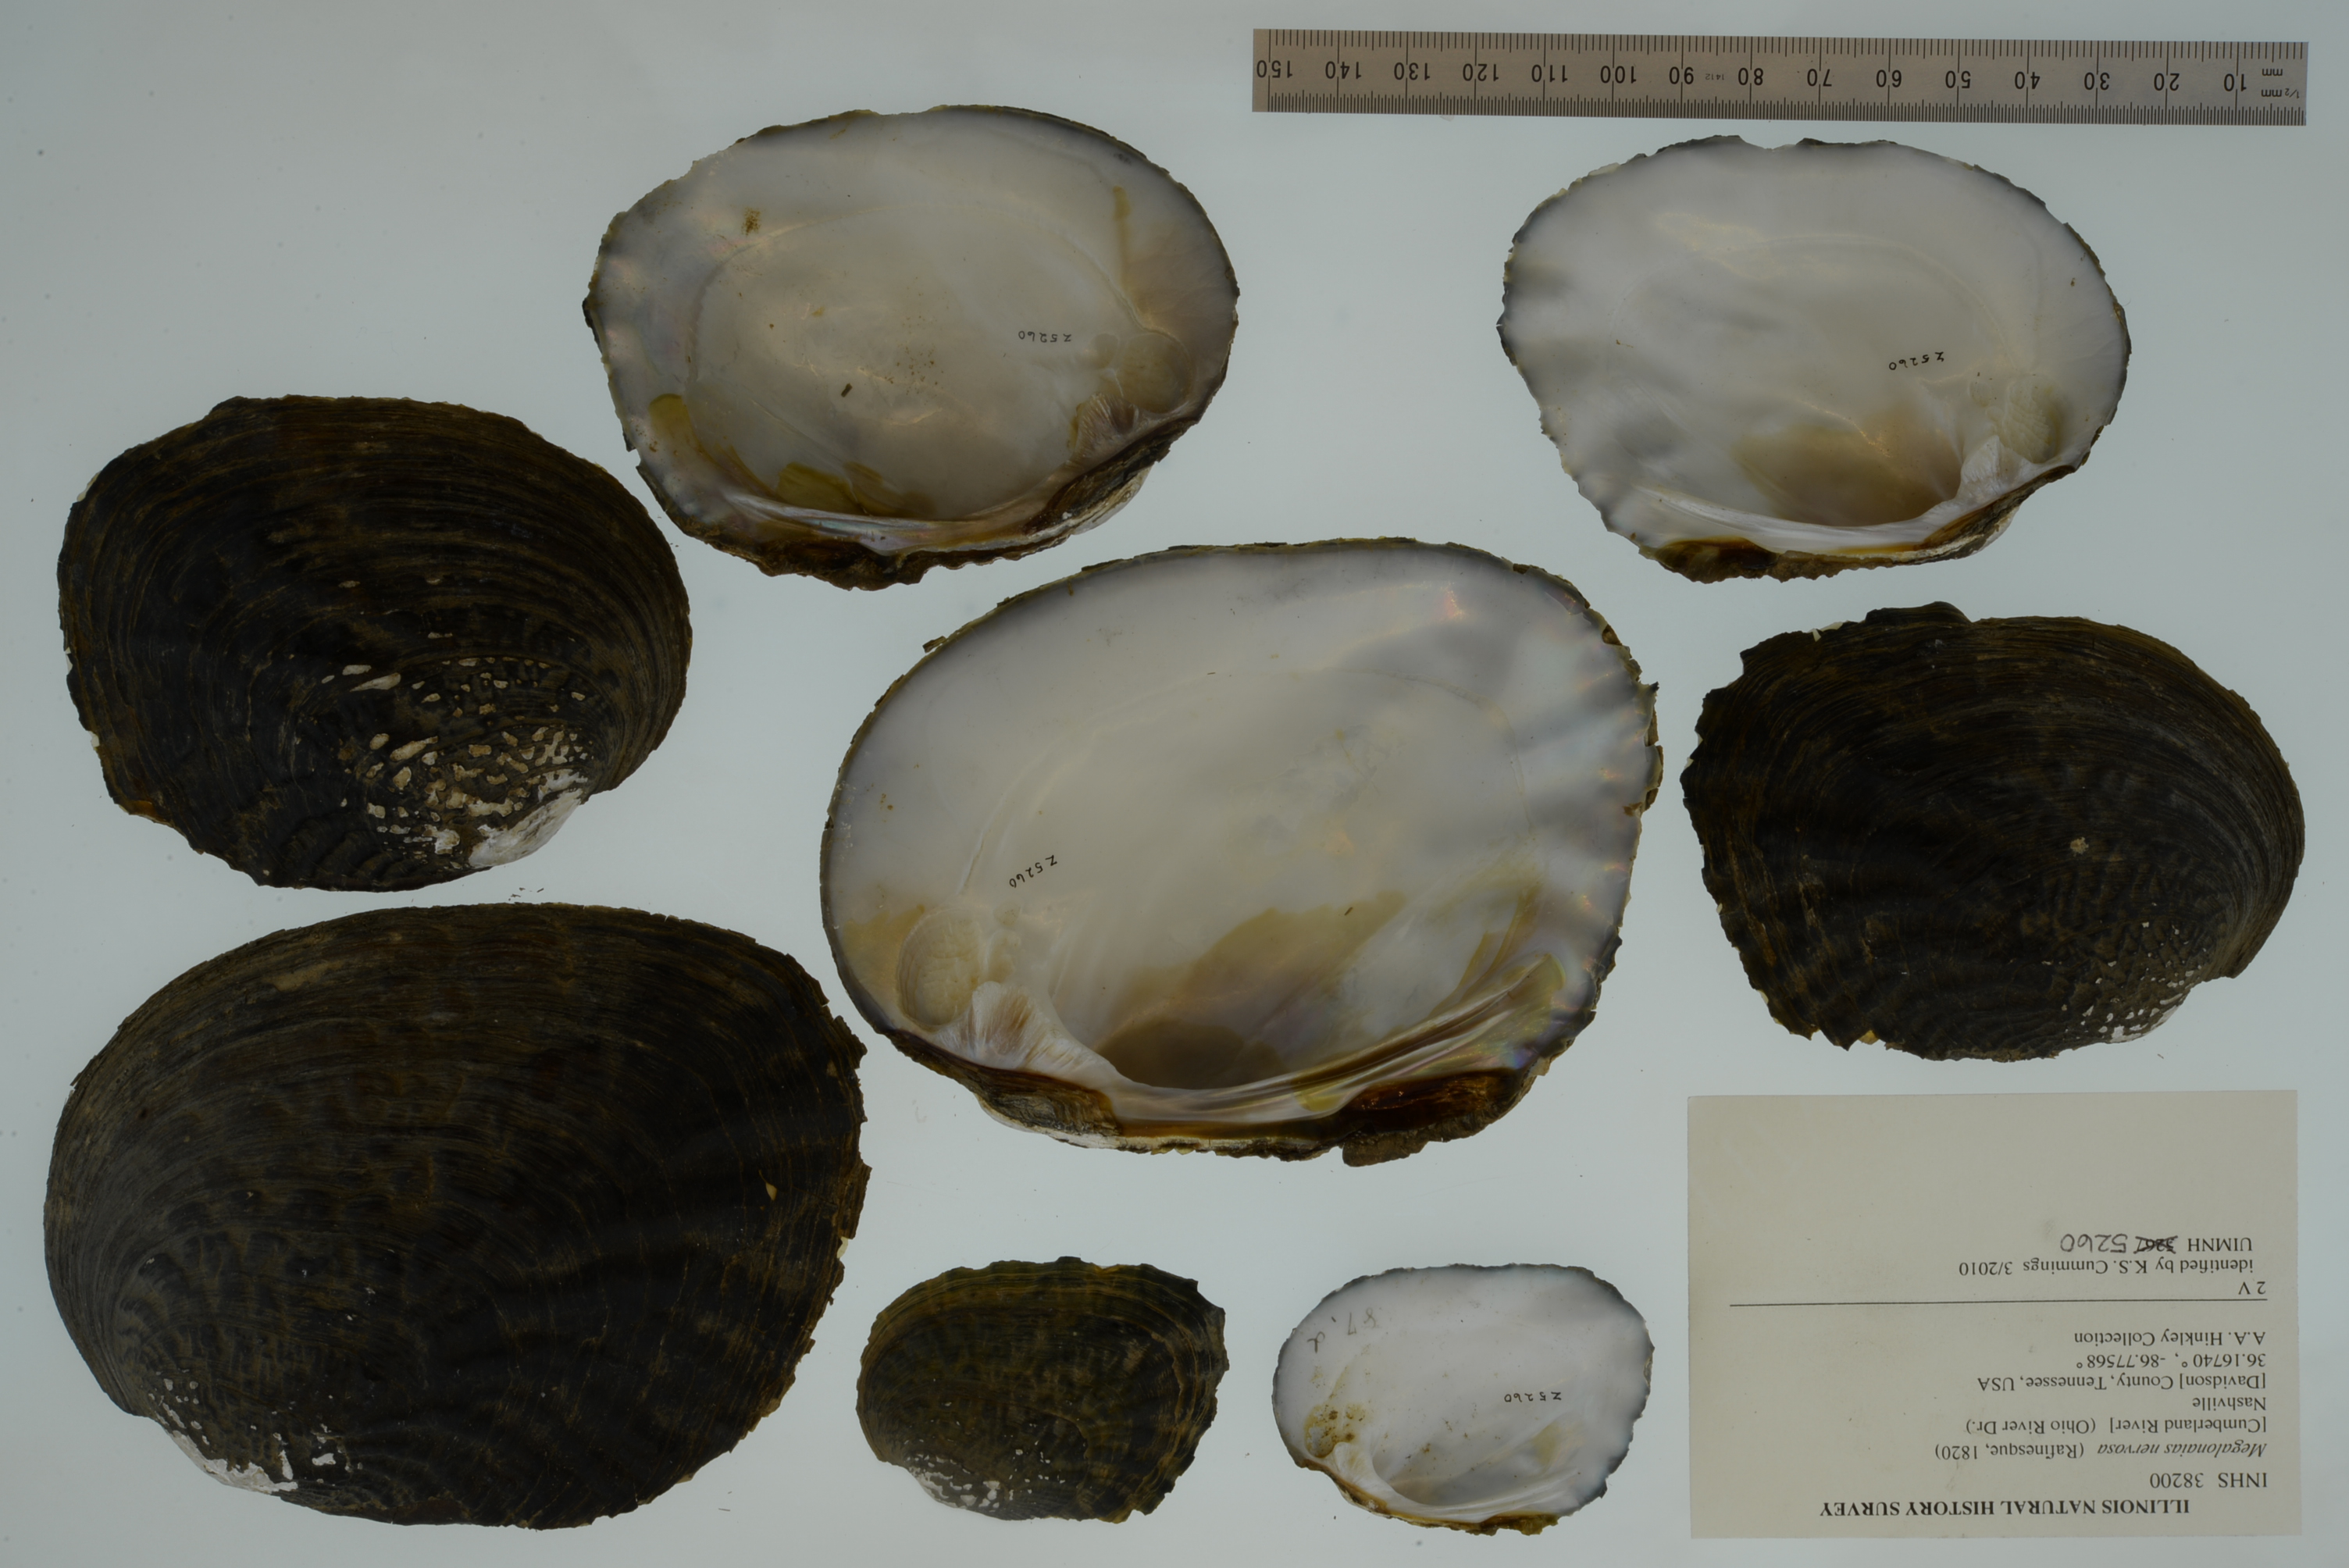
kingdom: Animalia
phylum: Mollusca
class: Bivalvia
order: Unionida
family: Unionidae
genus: Megalonaias
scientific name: Megalonaias nervosa
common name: Washboard
